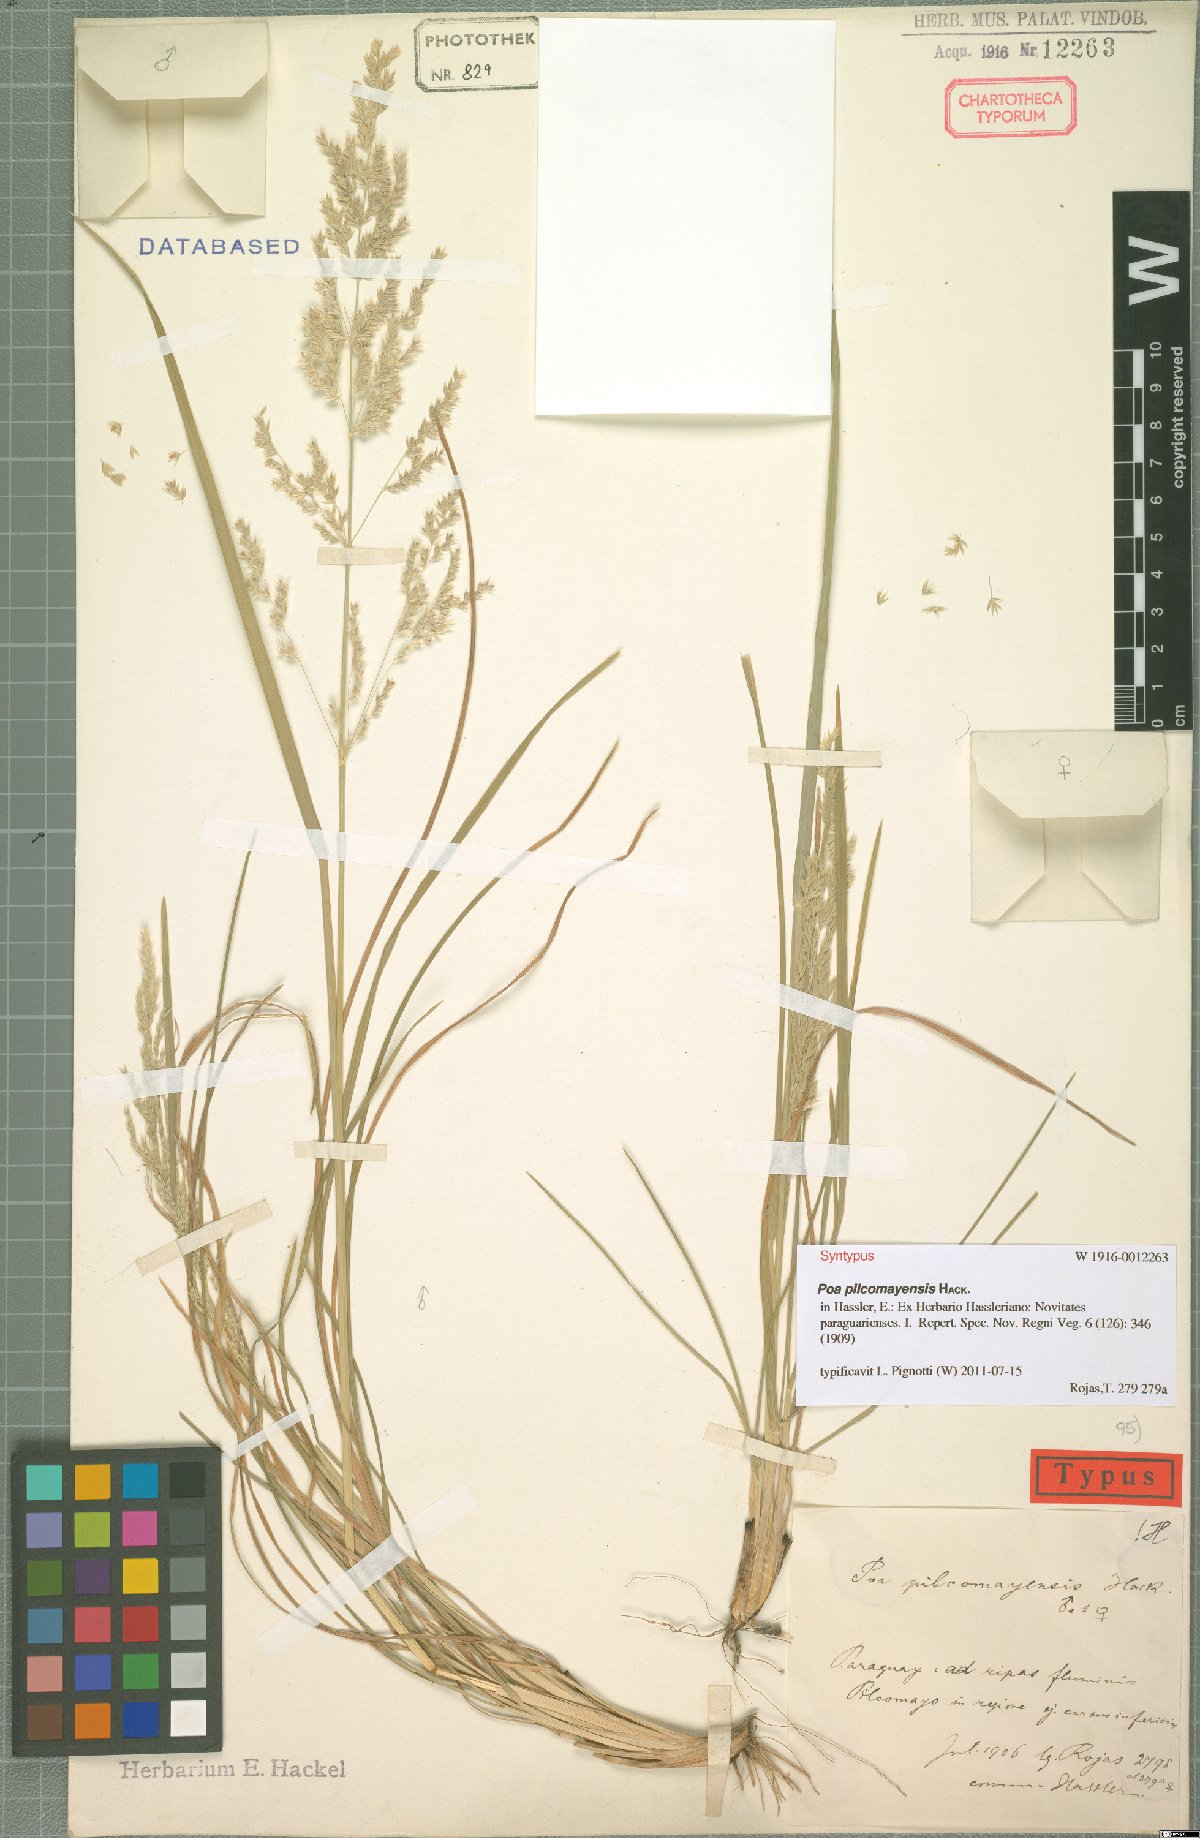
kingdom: Plantae
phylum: Tracheophyta
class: Liliopsida
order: Poales
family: Poaceae
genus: Poa
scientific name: Poa pilcomayensis
